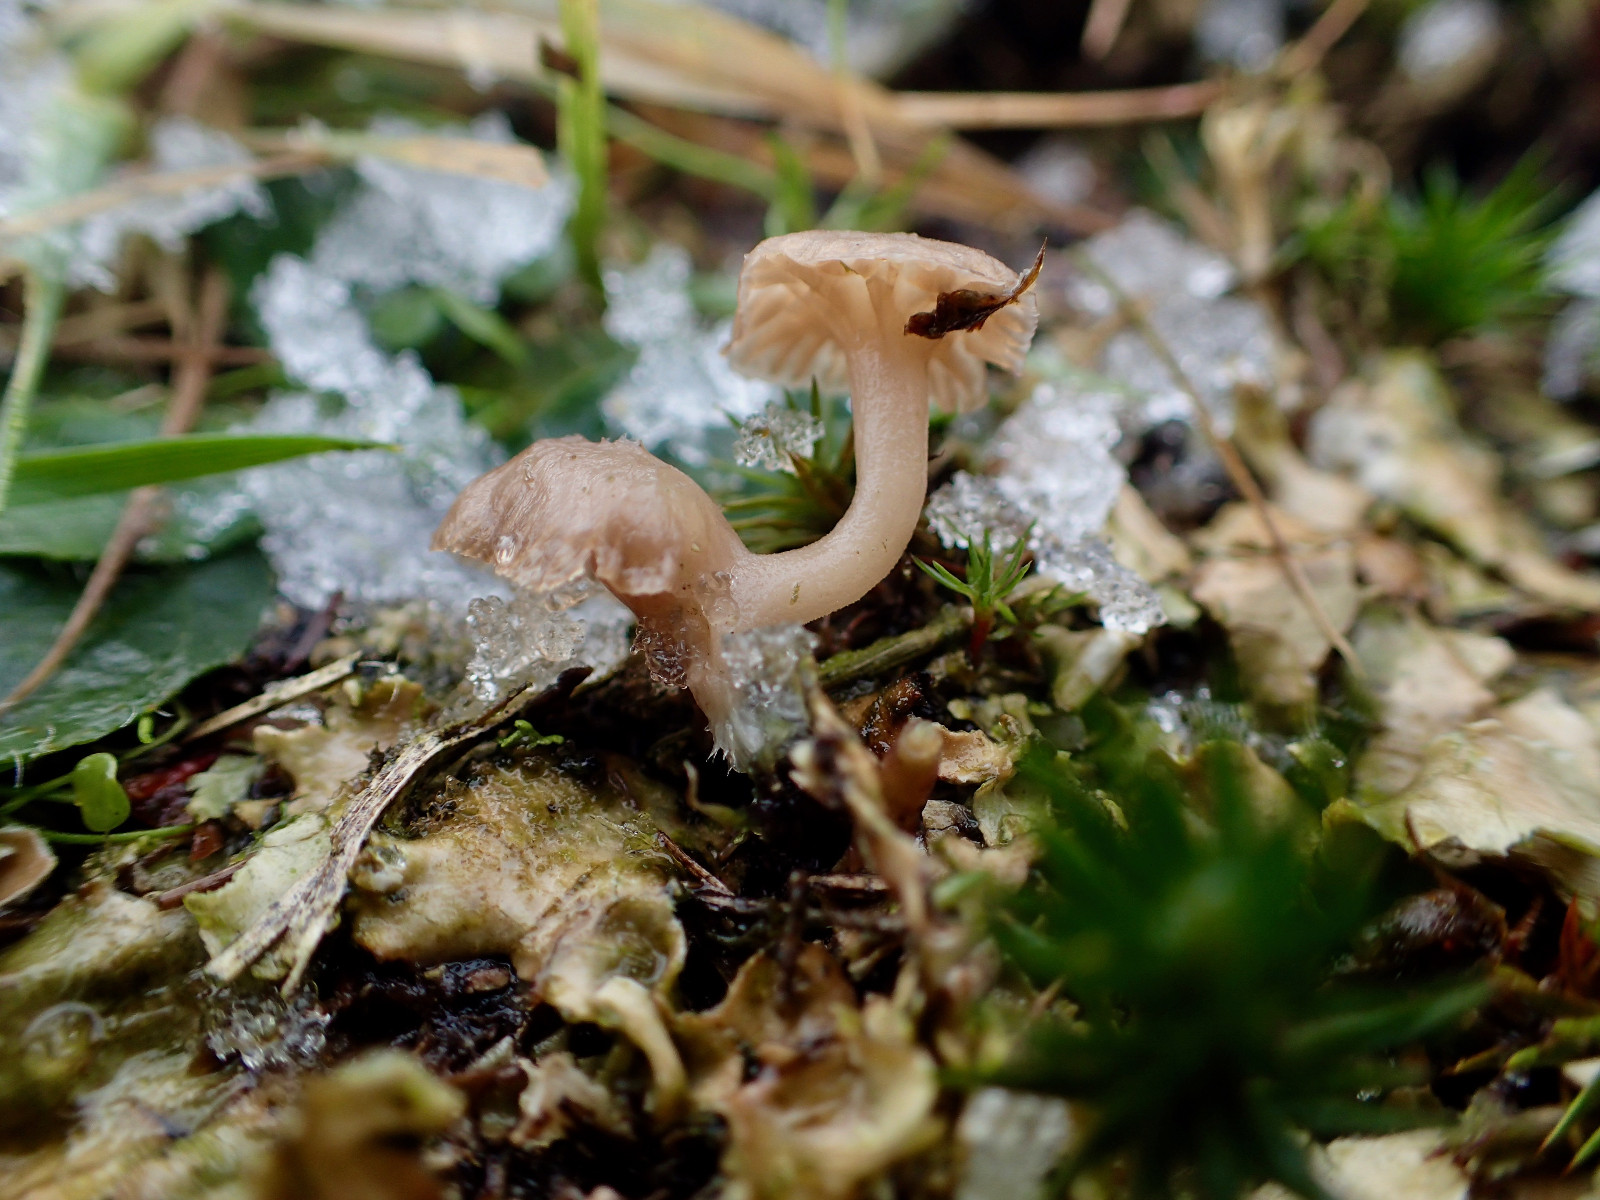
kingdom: Fungi
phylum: Basidiomycota
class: Agaricomycetes
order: Agaricales
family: Hygrophoraceae
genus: Arrhenia
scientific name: Arrhenia peltigerina
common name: skjoldlav-fontænehat
